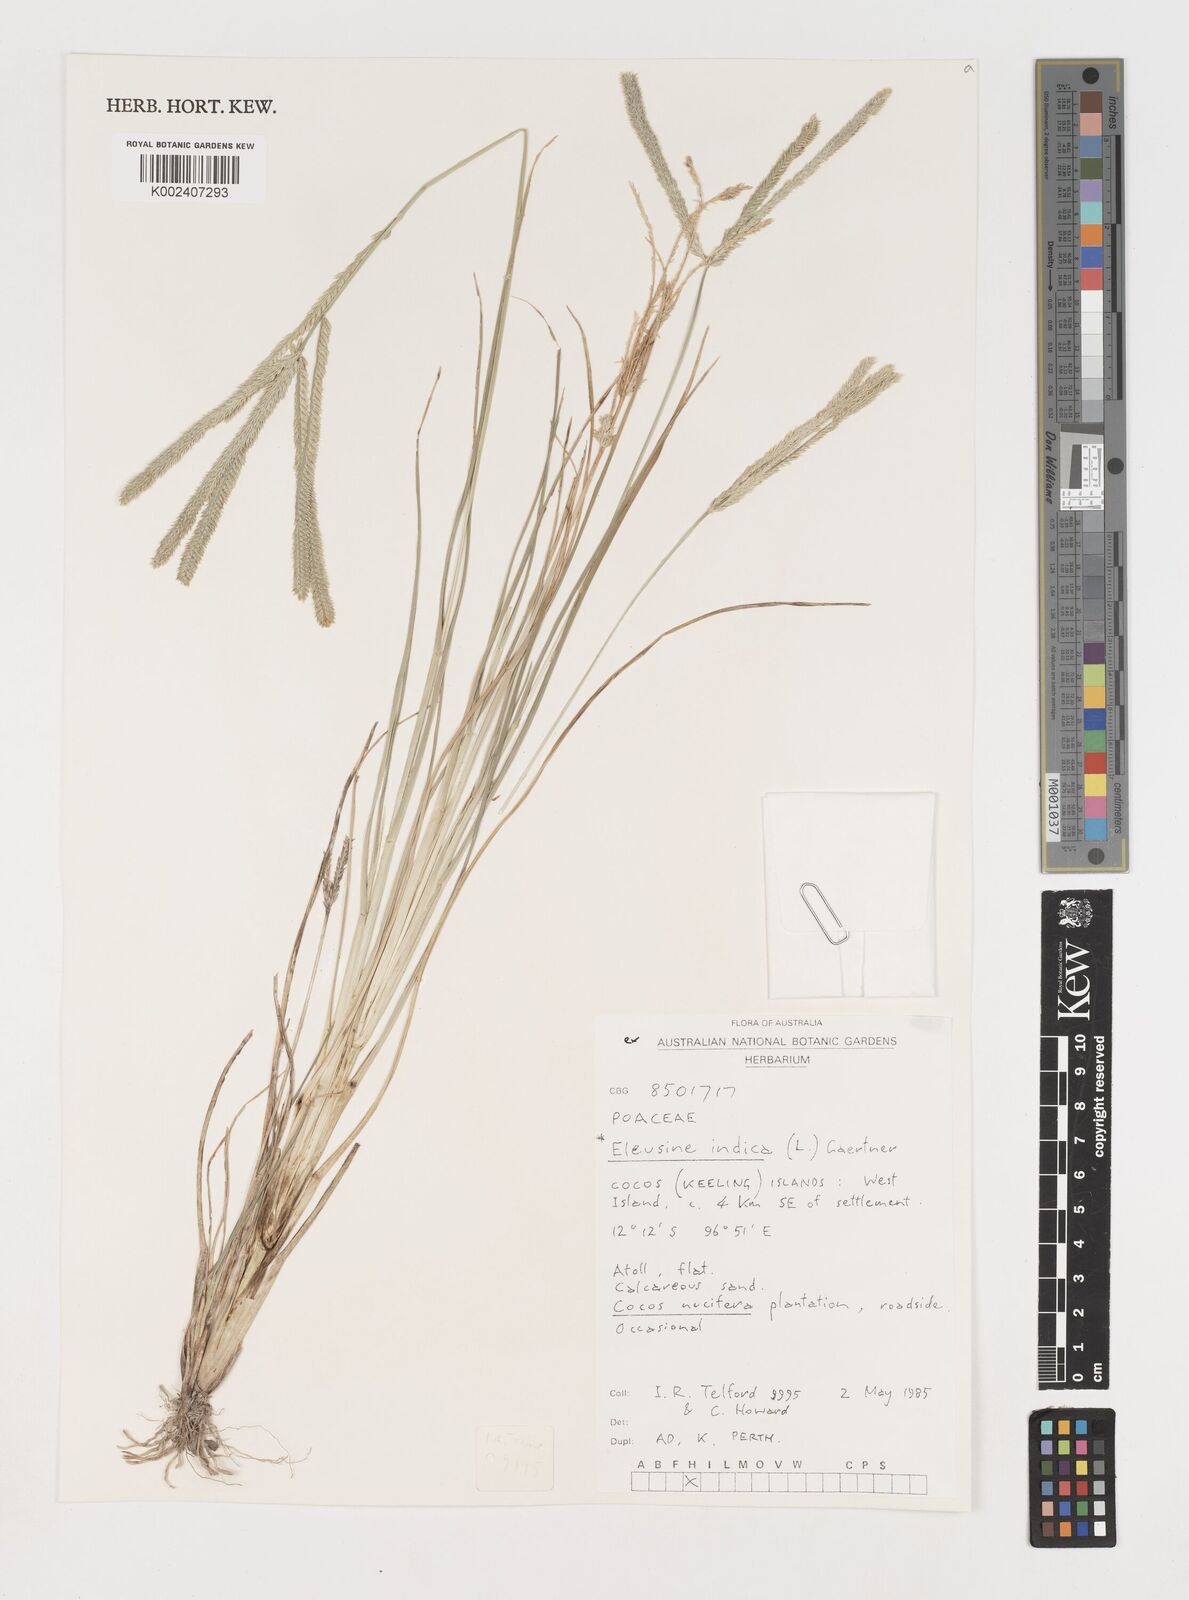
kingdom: Plantae
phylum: Tracheophyta
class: Liliopsida
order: Poales
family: Poaceae
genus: Eleusine
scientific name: Eleusine indica
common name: Yard-grass
